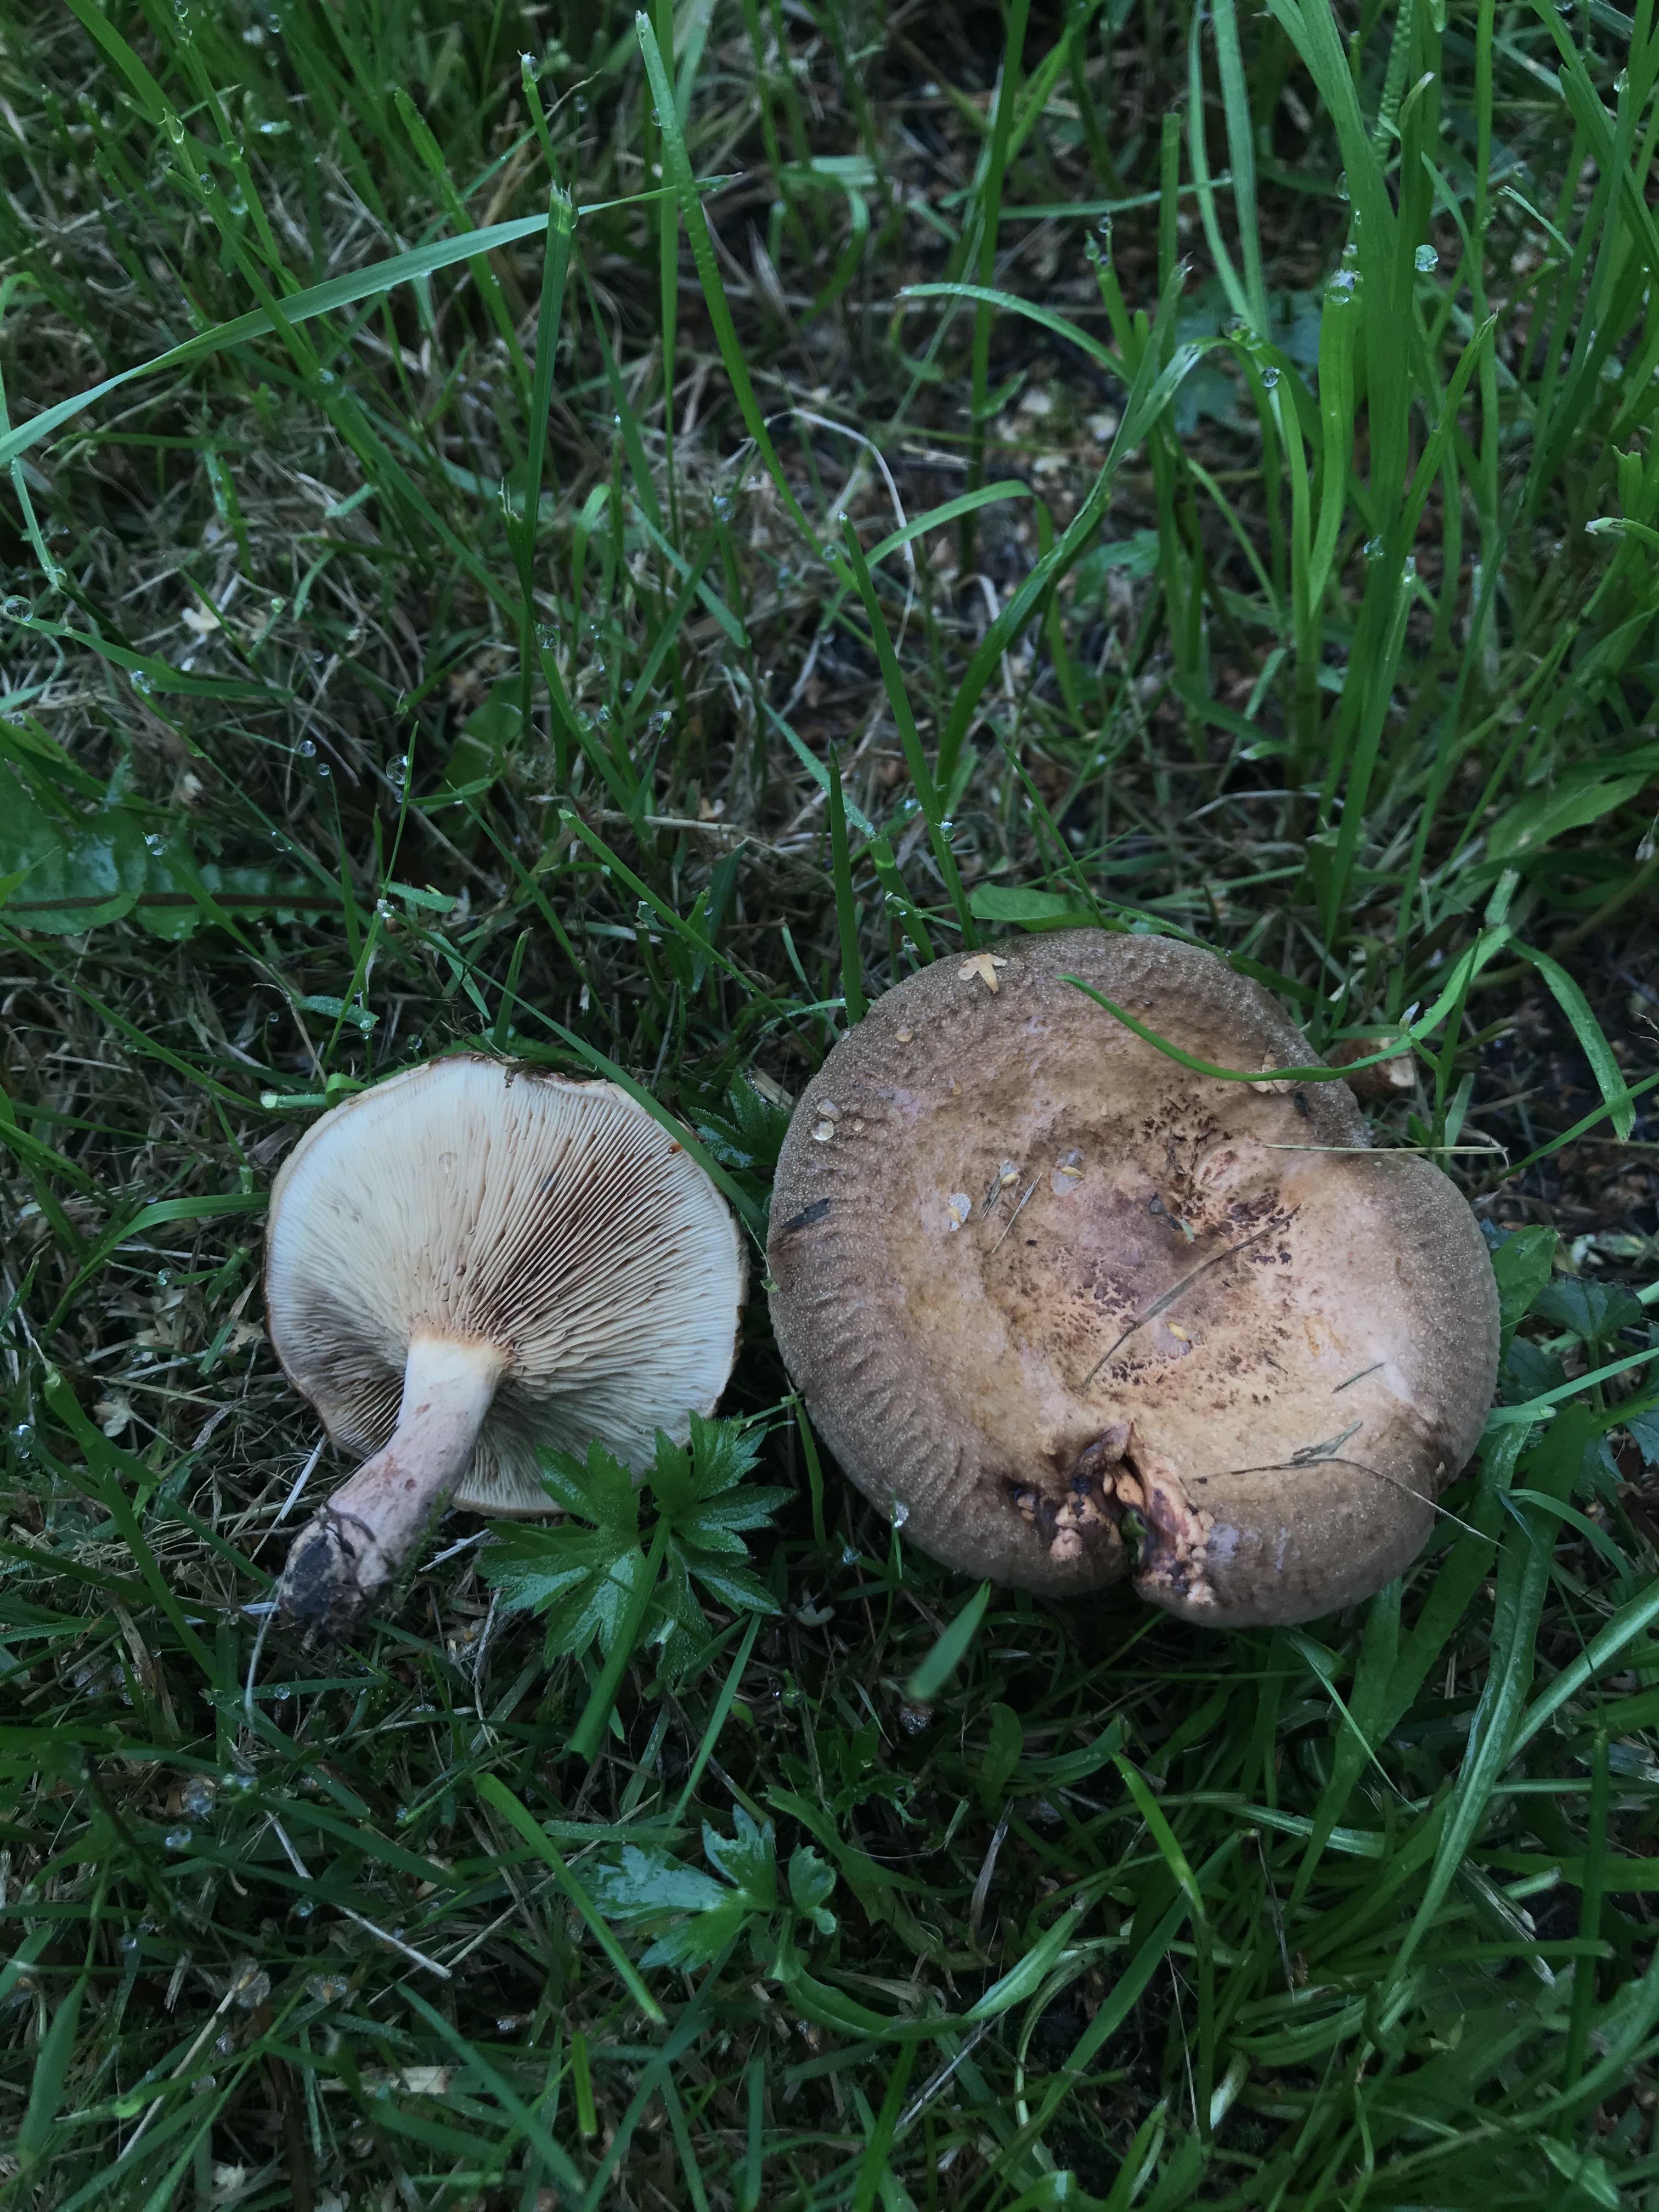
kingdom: Fungi
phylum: Basidiomycota
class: Agaricomycetes
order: Boletales
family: Paxillaceae
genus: Paxillus
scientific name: Paxillus involutus
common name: Brown roll rim
